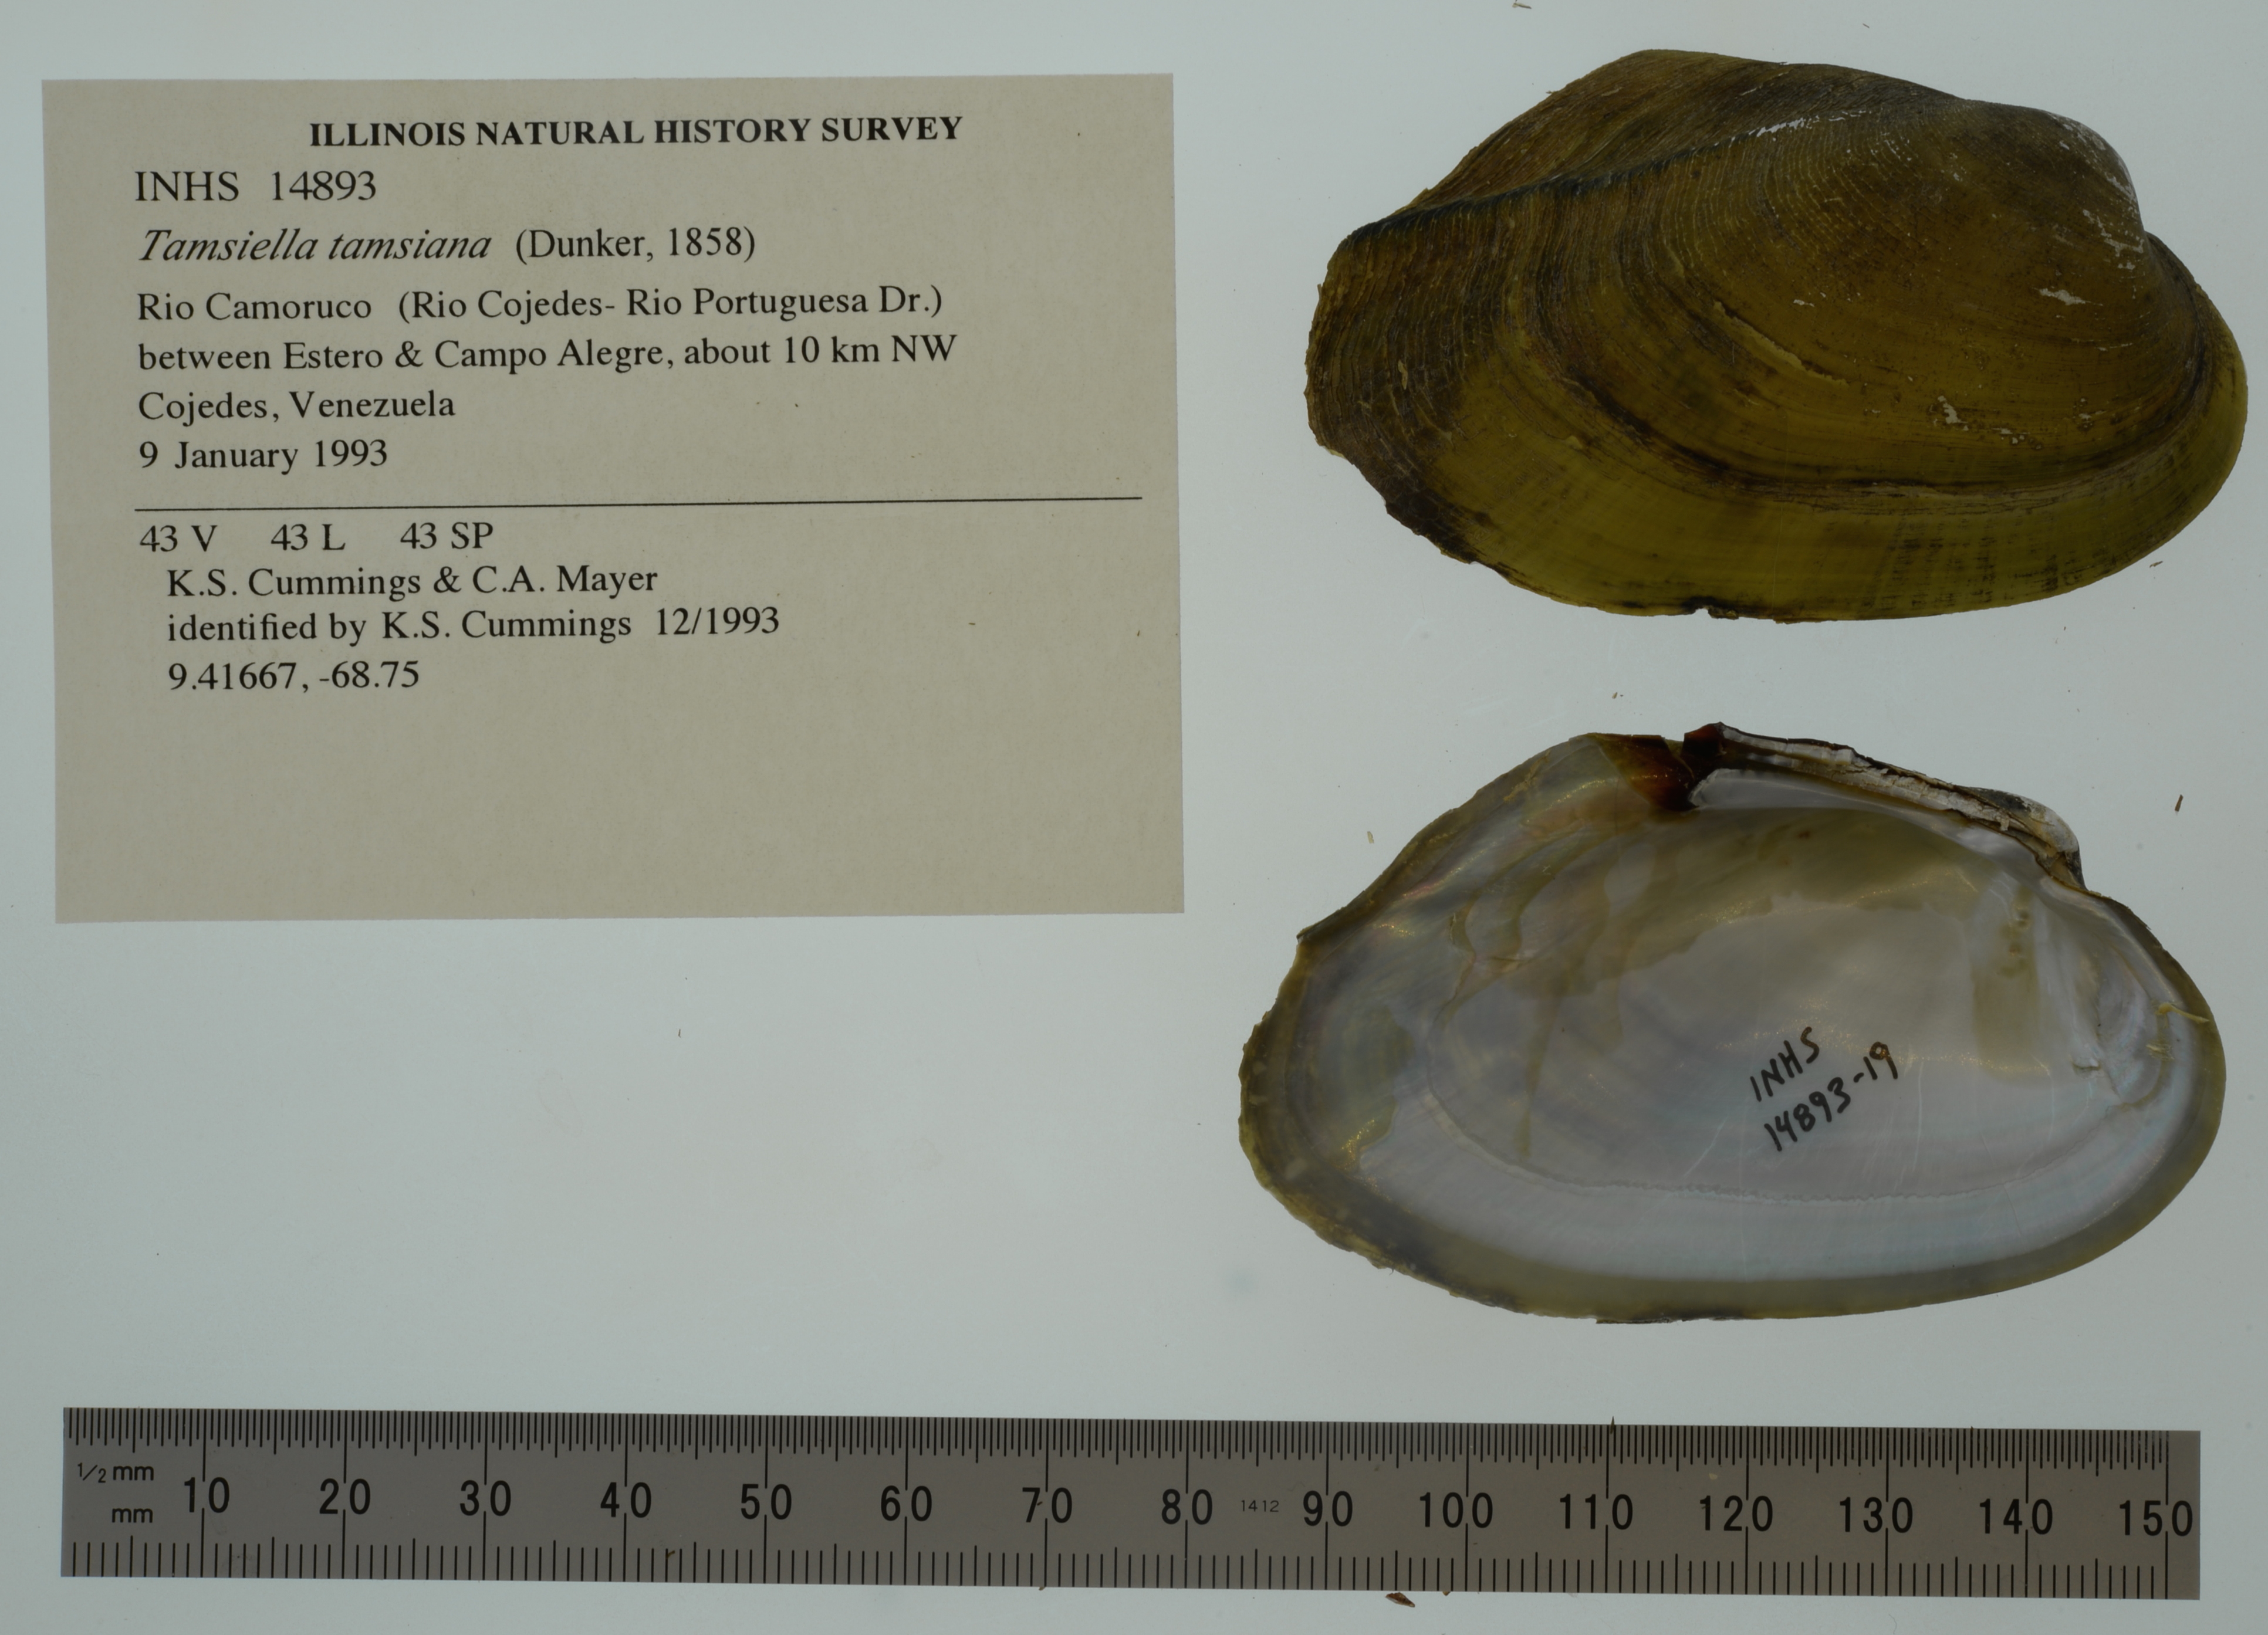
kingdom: Animalia
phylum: Mollusca
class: Bivalvia
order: Unionida
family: Mycetopodidae
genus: Tamsiella
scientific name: Tamsiella tamsiana
